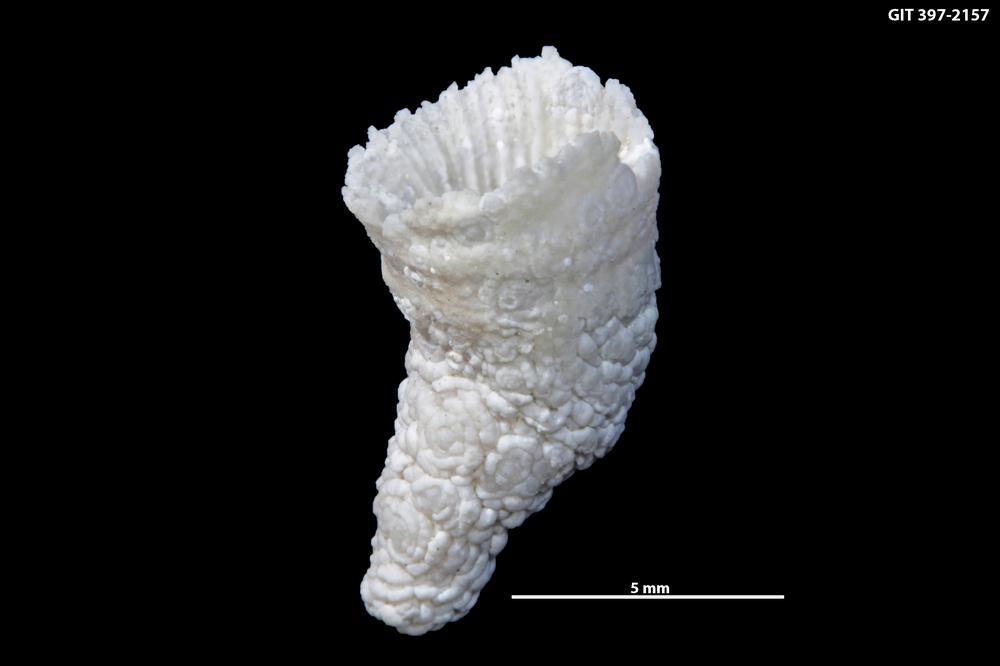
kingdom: Animalia
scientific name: Animalia
